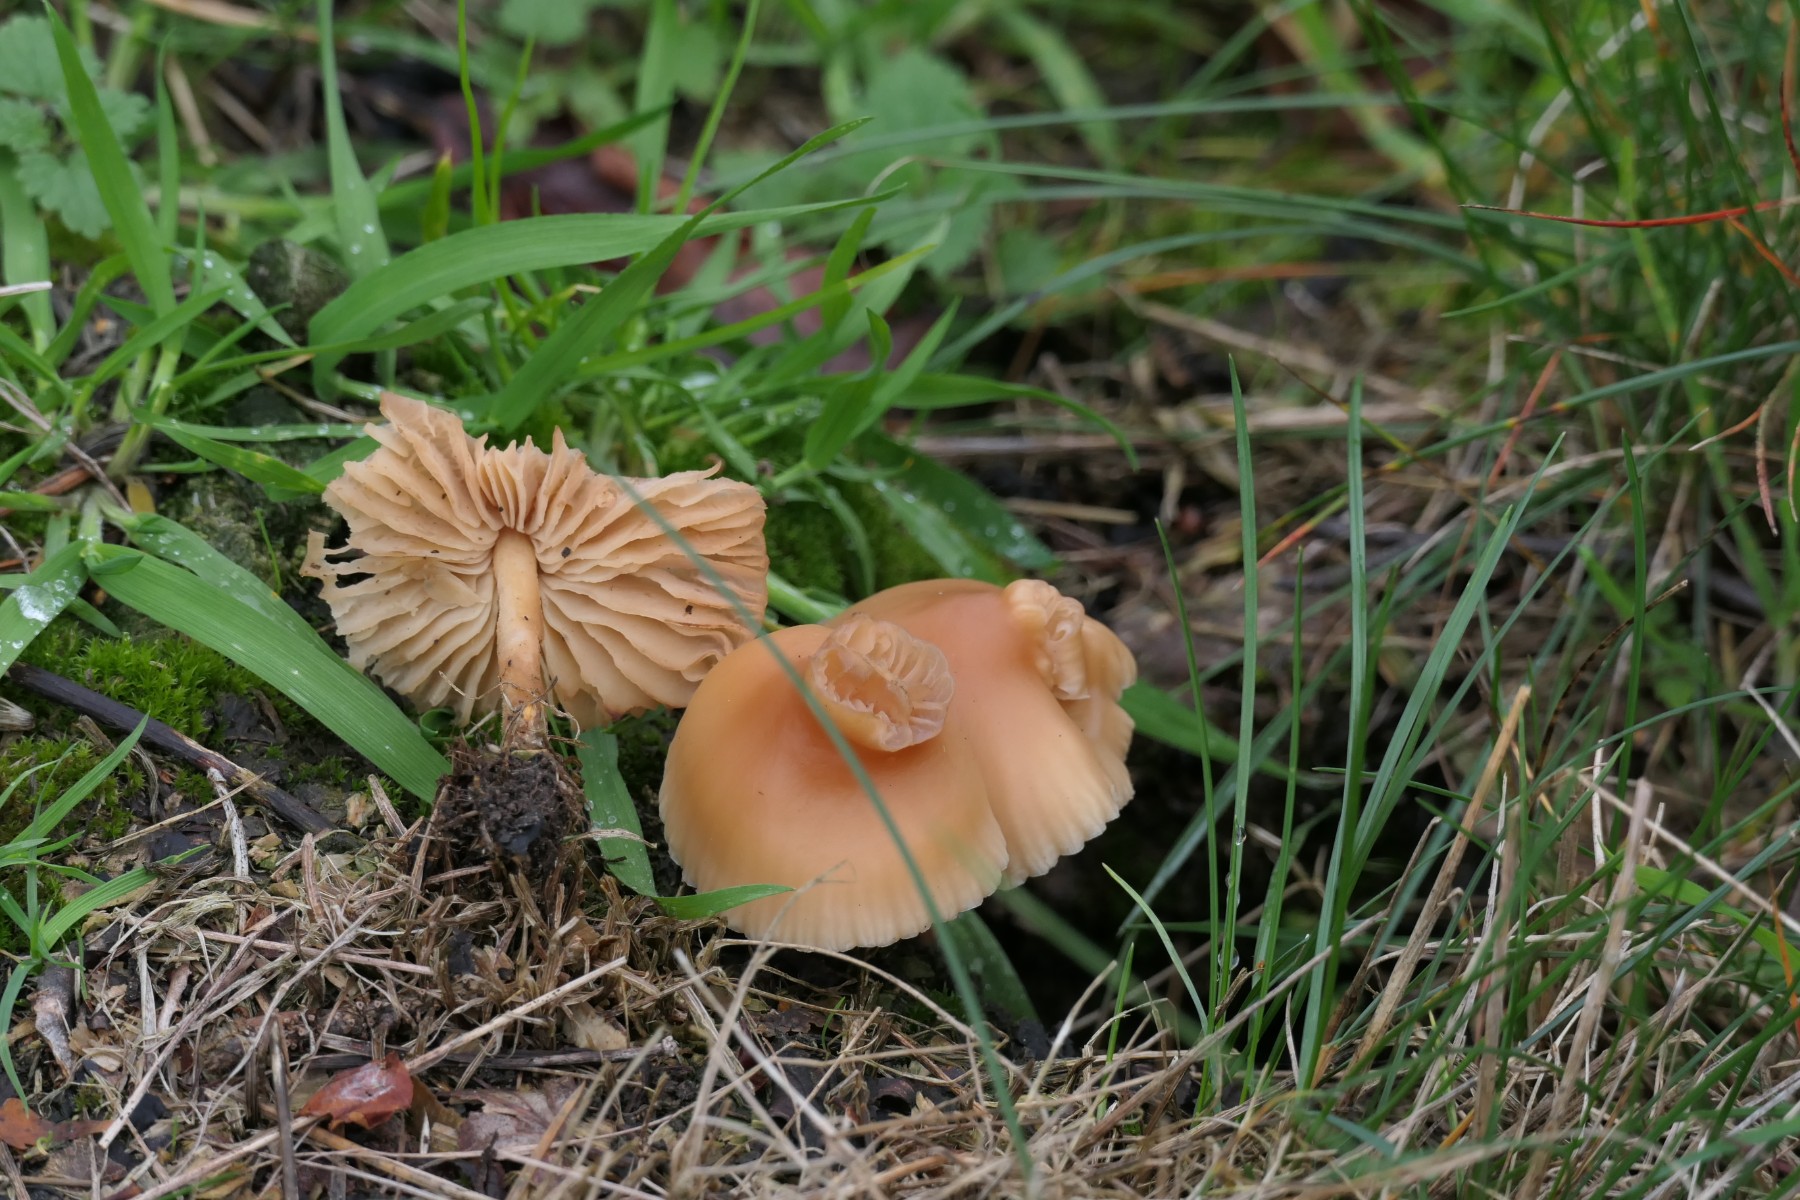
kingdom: Fungi
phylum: Basidiomycota
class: Agaricomycetes
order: Agaricales
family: Marasmiaceae
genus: Marasmius
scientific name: Marasmius oreades
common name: elledans-bruskhat
